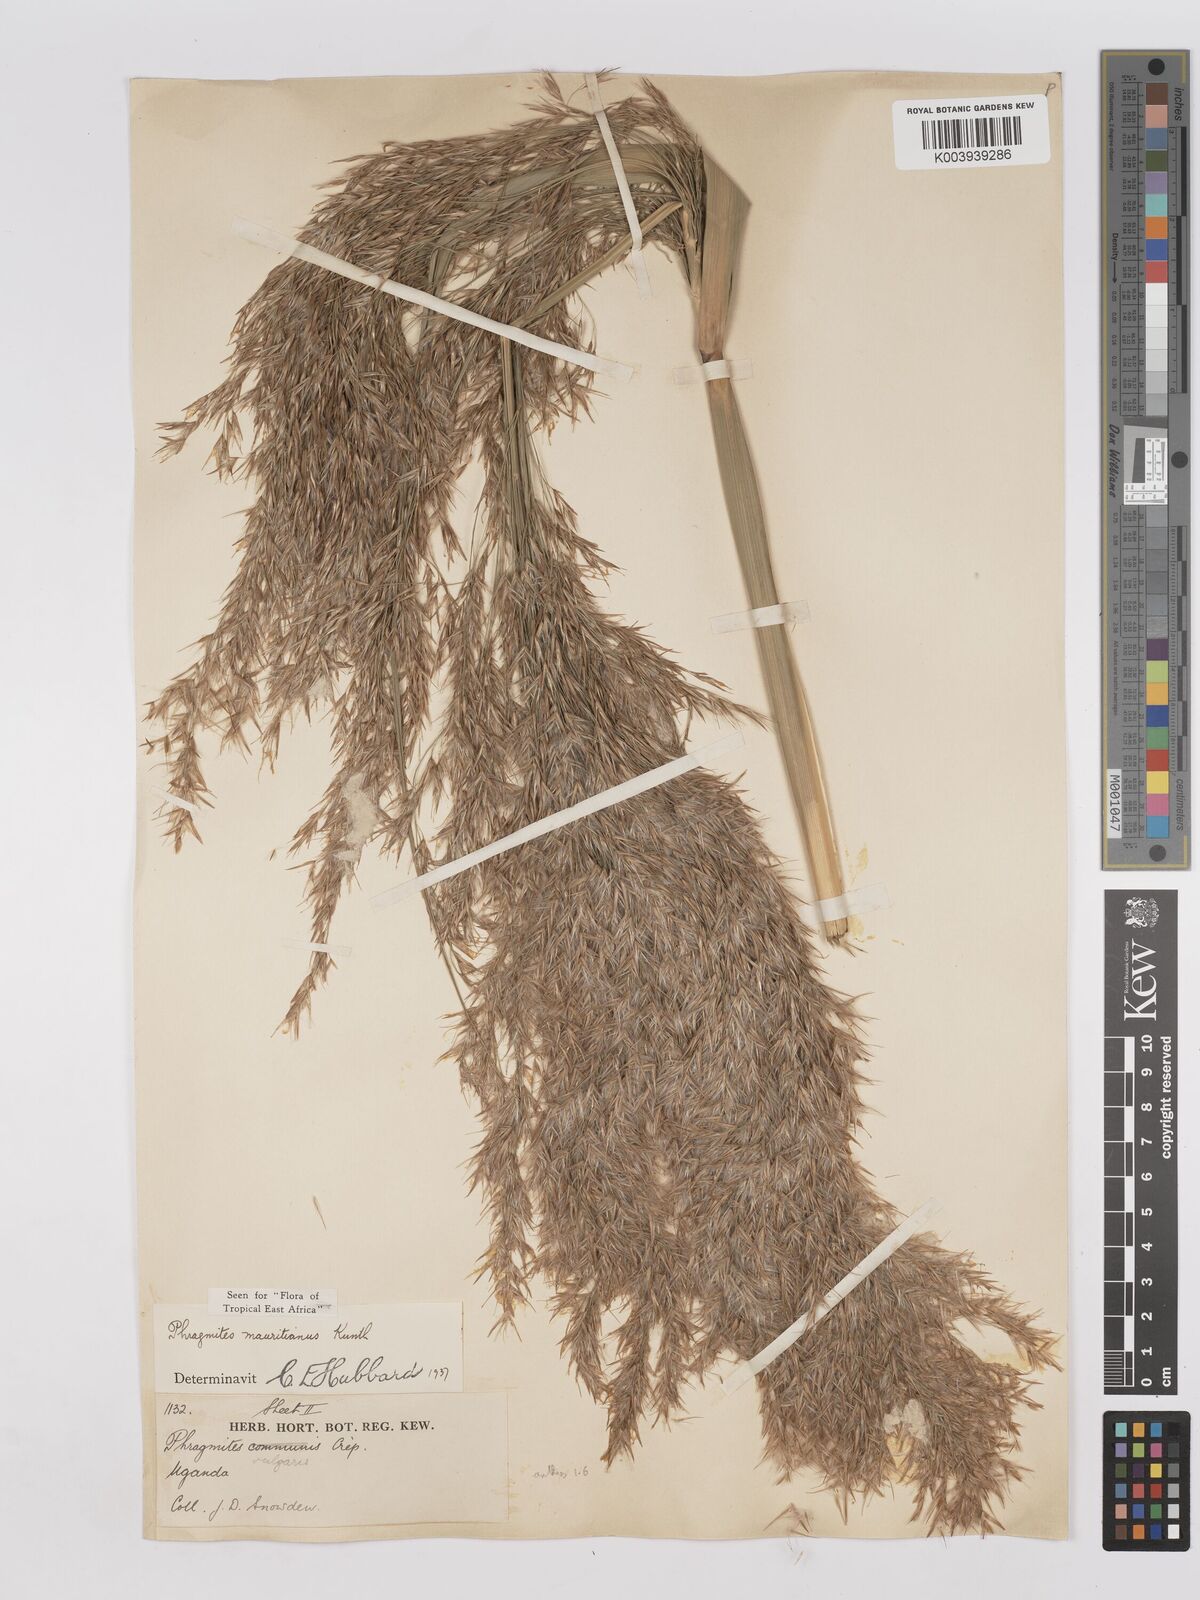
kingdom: Plantae
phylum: Tracheophyta
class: Liliopsida
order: Poales
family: Poaceae
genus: Phragmites
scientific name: Phragmites mauritianus
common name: Reed grass
